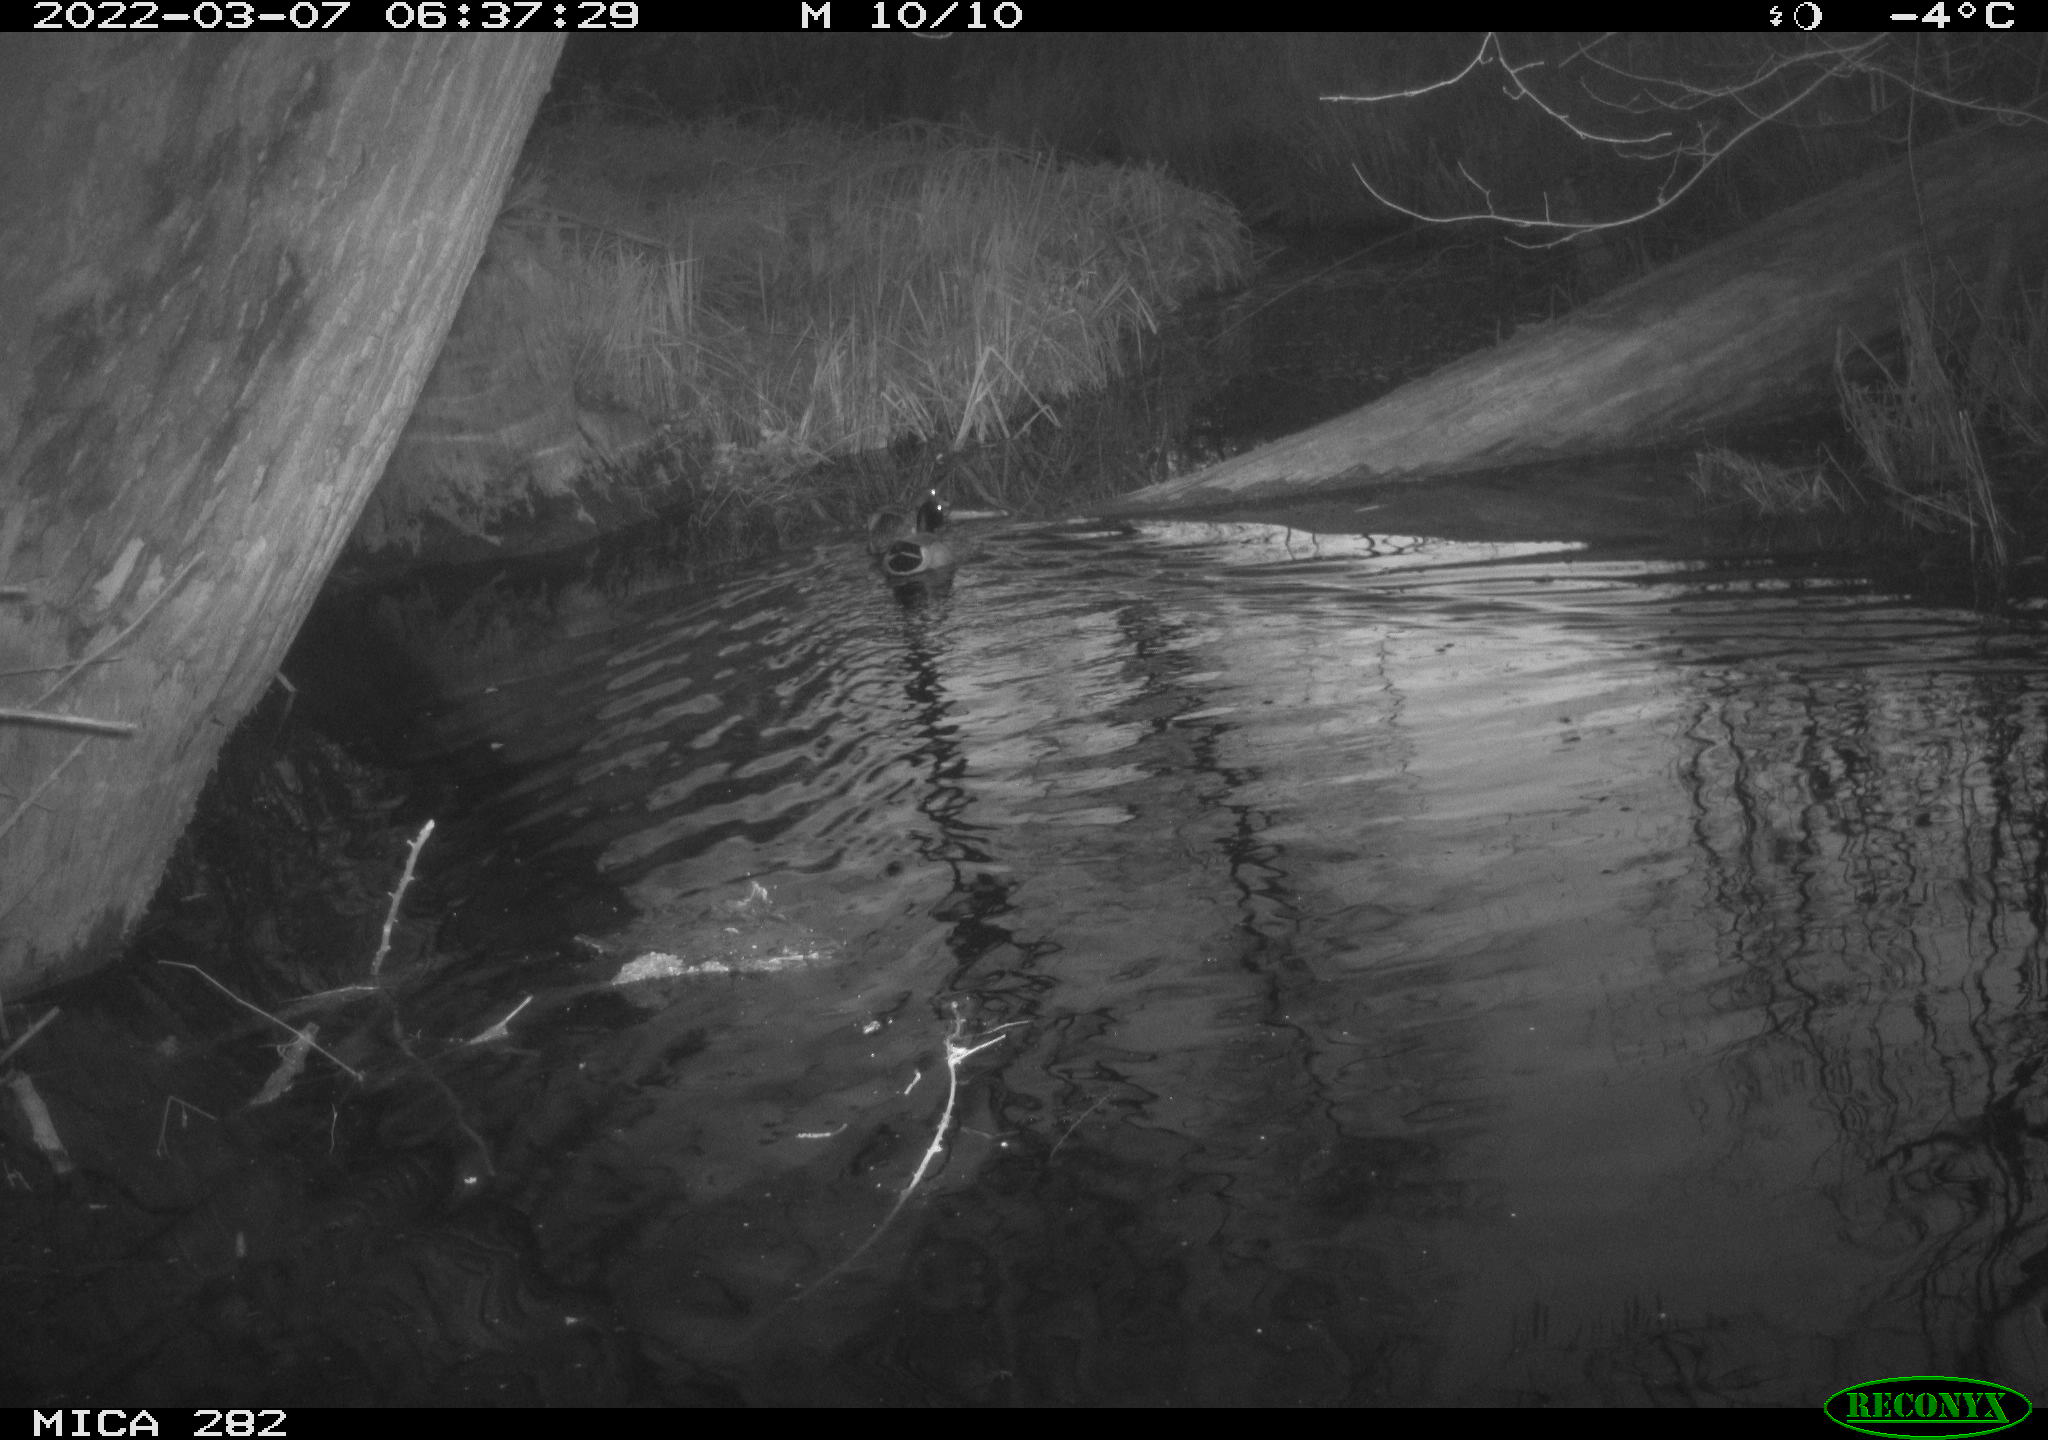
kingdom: Animalia
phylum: Chordata
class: Aves
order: Anseriformes
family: Anatidae
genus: Anas
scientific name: Anas platyrhynchos
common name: Mallard
